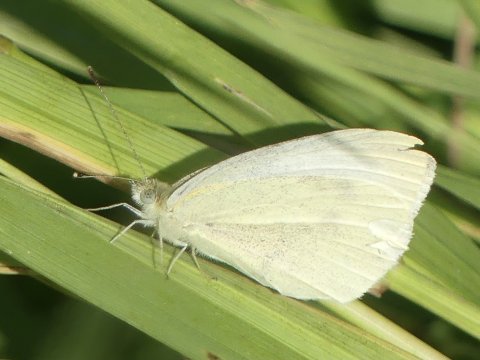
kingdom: Animalia
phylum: Arthropoda
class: Insecta
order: Lepidoptera
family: Pieridae
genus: Pieris
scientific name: Pieris rapae
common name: Cabbage White
